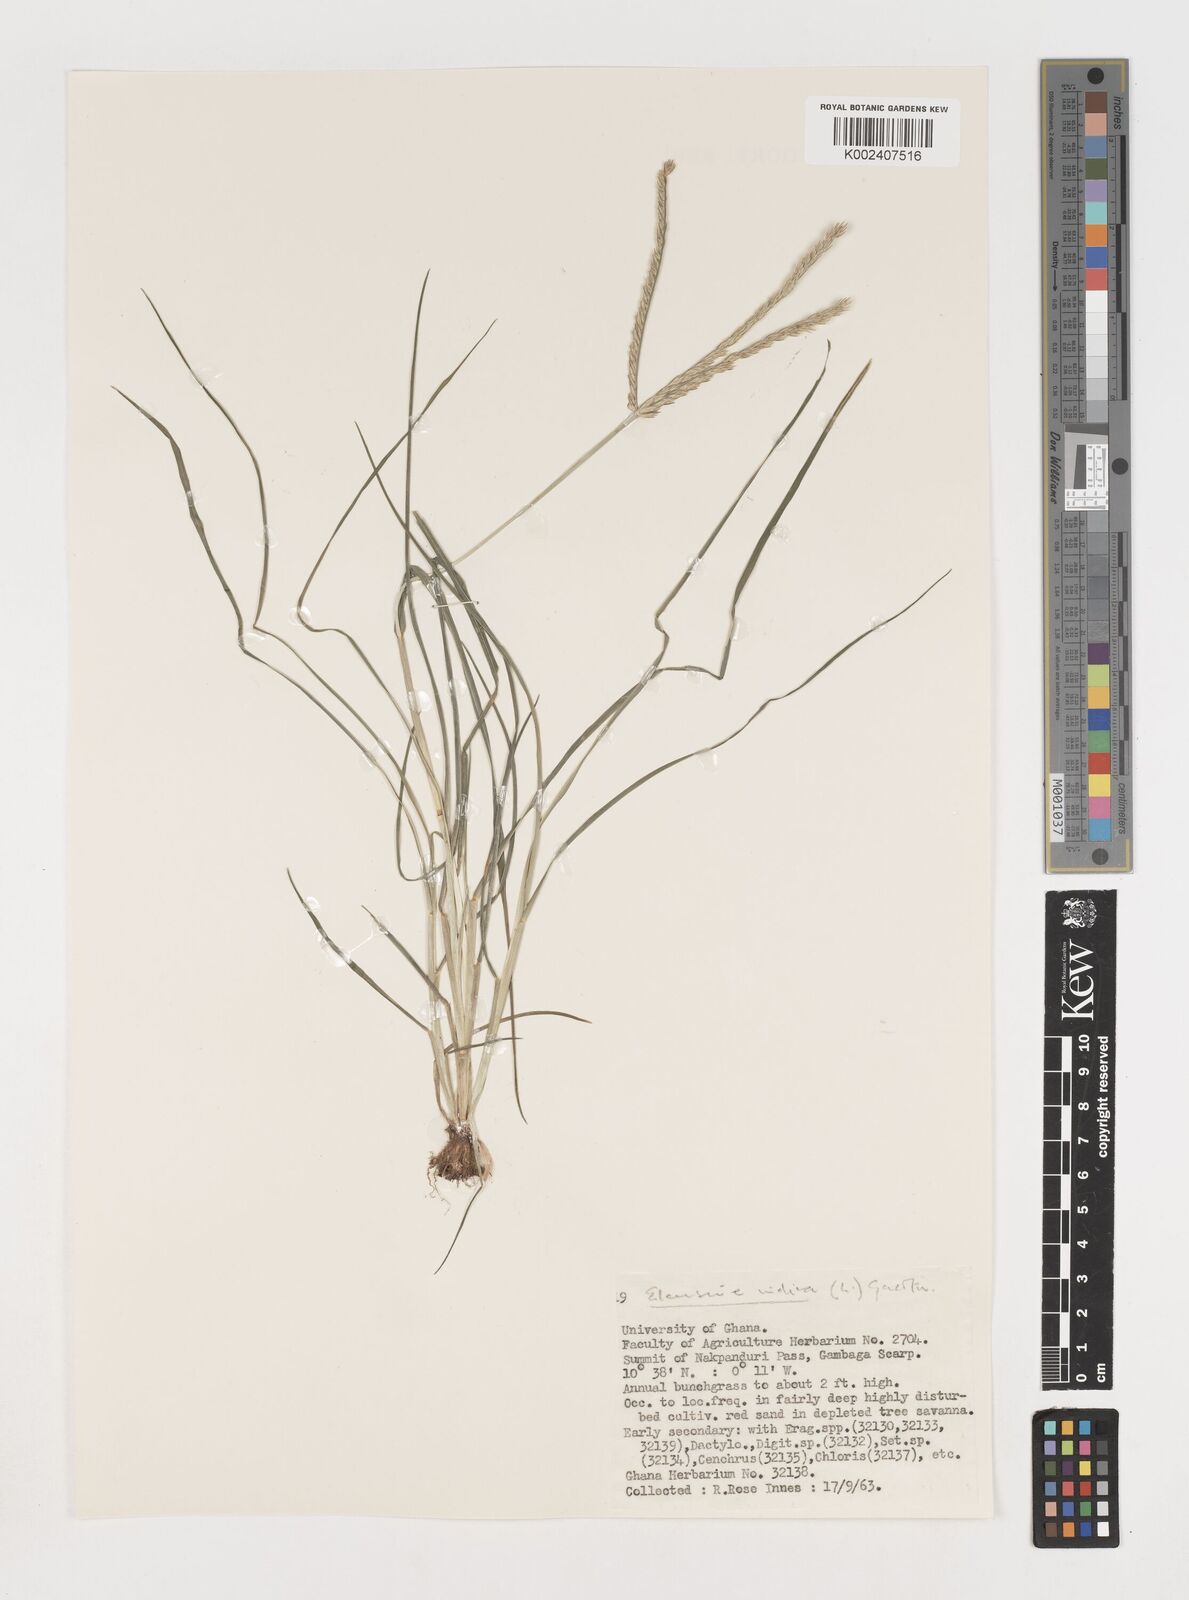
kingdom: Plantae
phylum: Tracheophyta
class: Liliopsida
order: Poales
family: Poaceae
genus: Eleusine
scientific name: Eleusine africana
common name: Wild african finger millet
